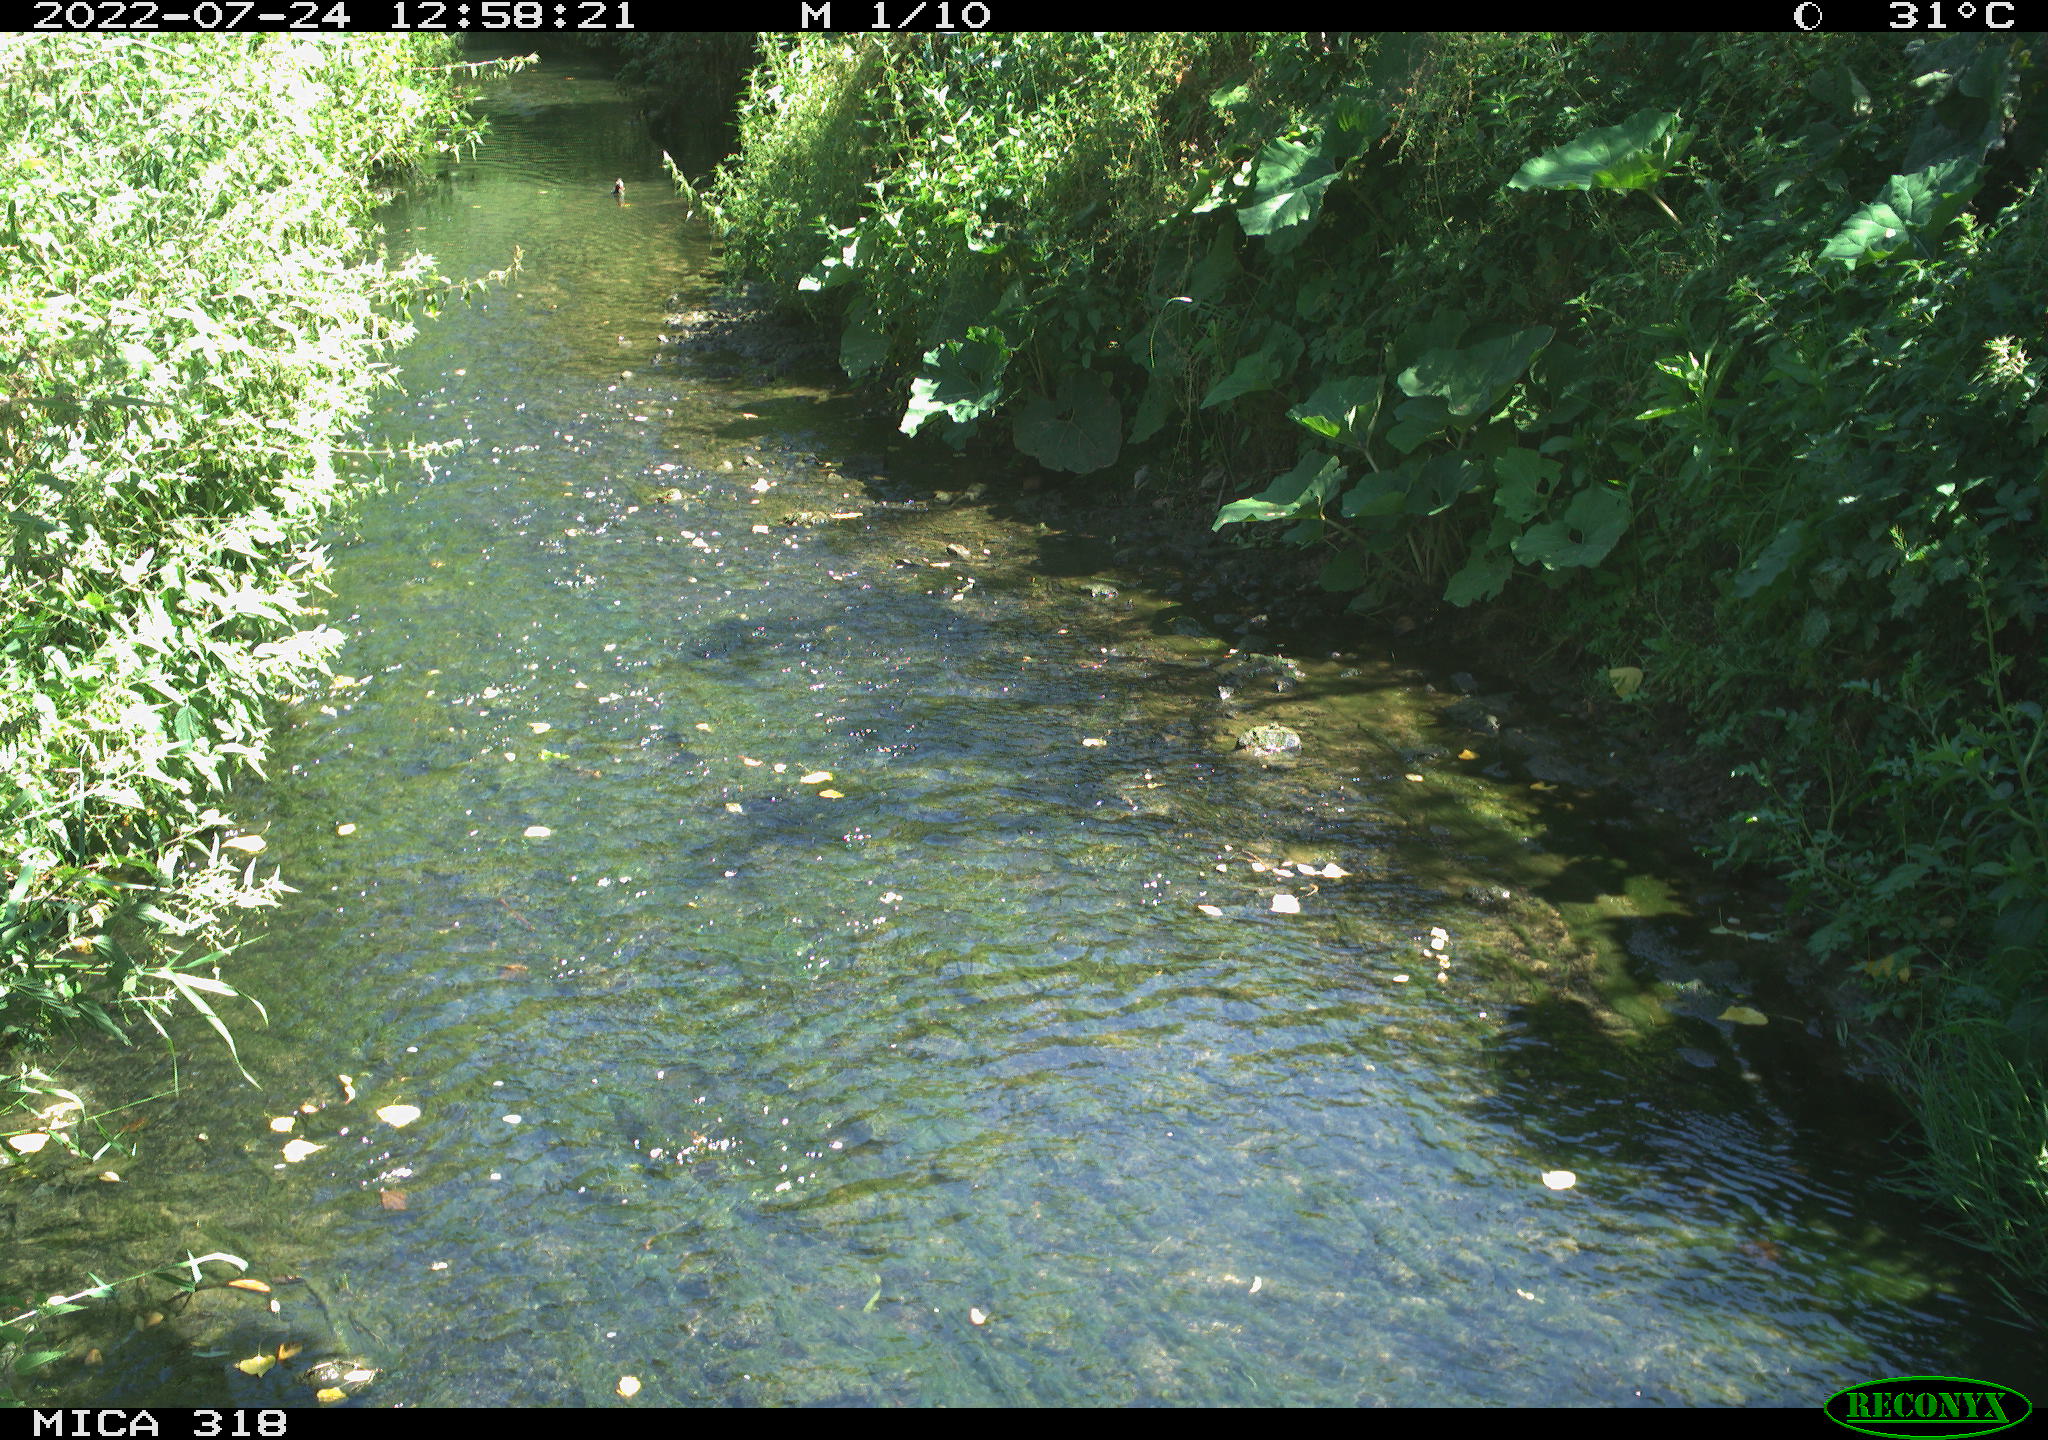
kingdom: Animalia
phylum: Chordata
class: Aves
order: Gruiformes
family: Rallidae
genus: Gallinula
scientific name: Gallinula chloropus
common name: Common moorhen
